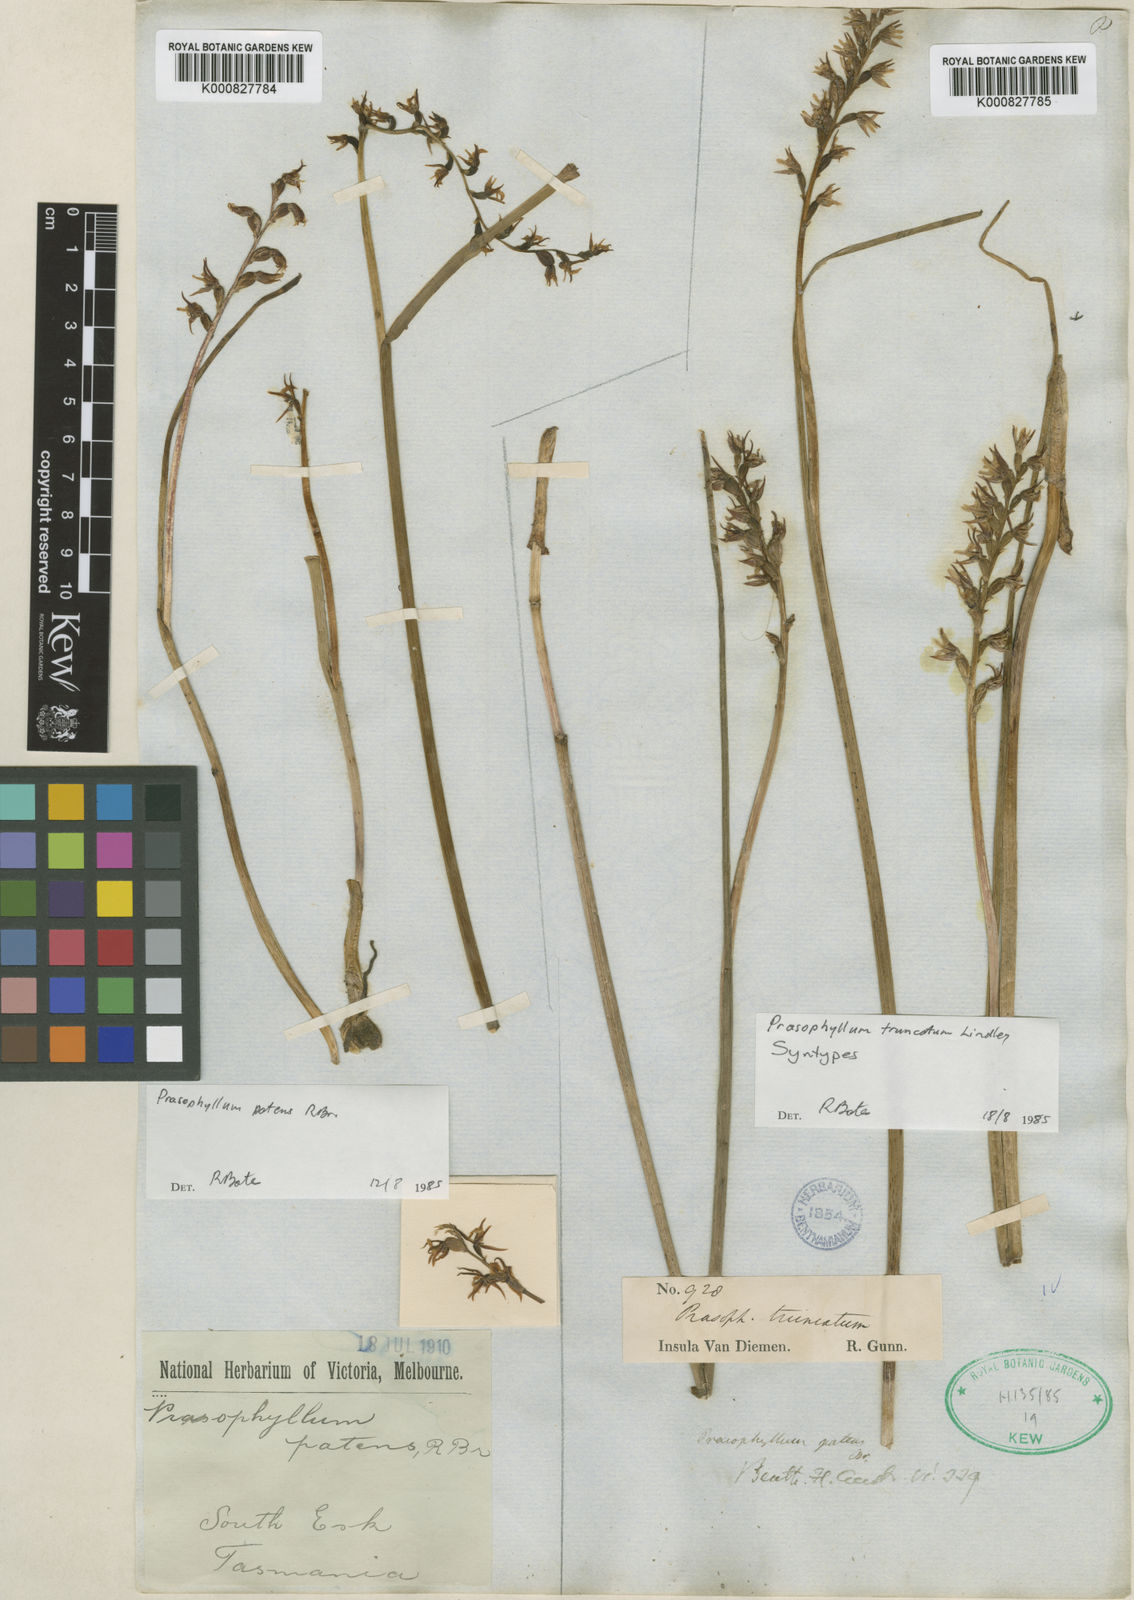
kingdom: Plantae
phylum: Tracheophyta
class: Liliopsida
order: Asparagales
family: Orchidaceae
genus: Prasophyllum
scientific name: Prasophyllum truncatum
